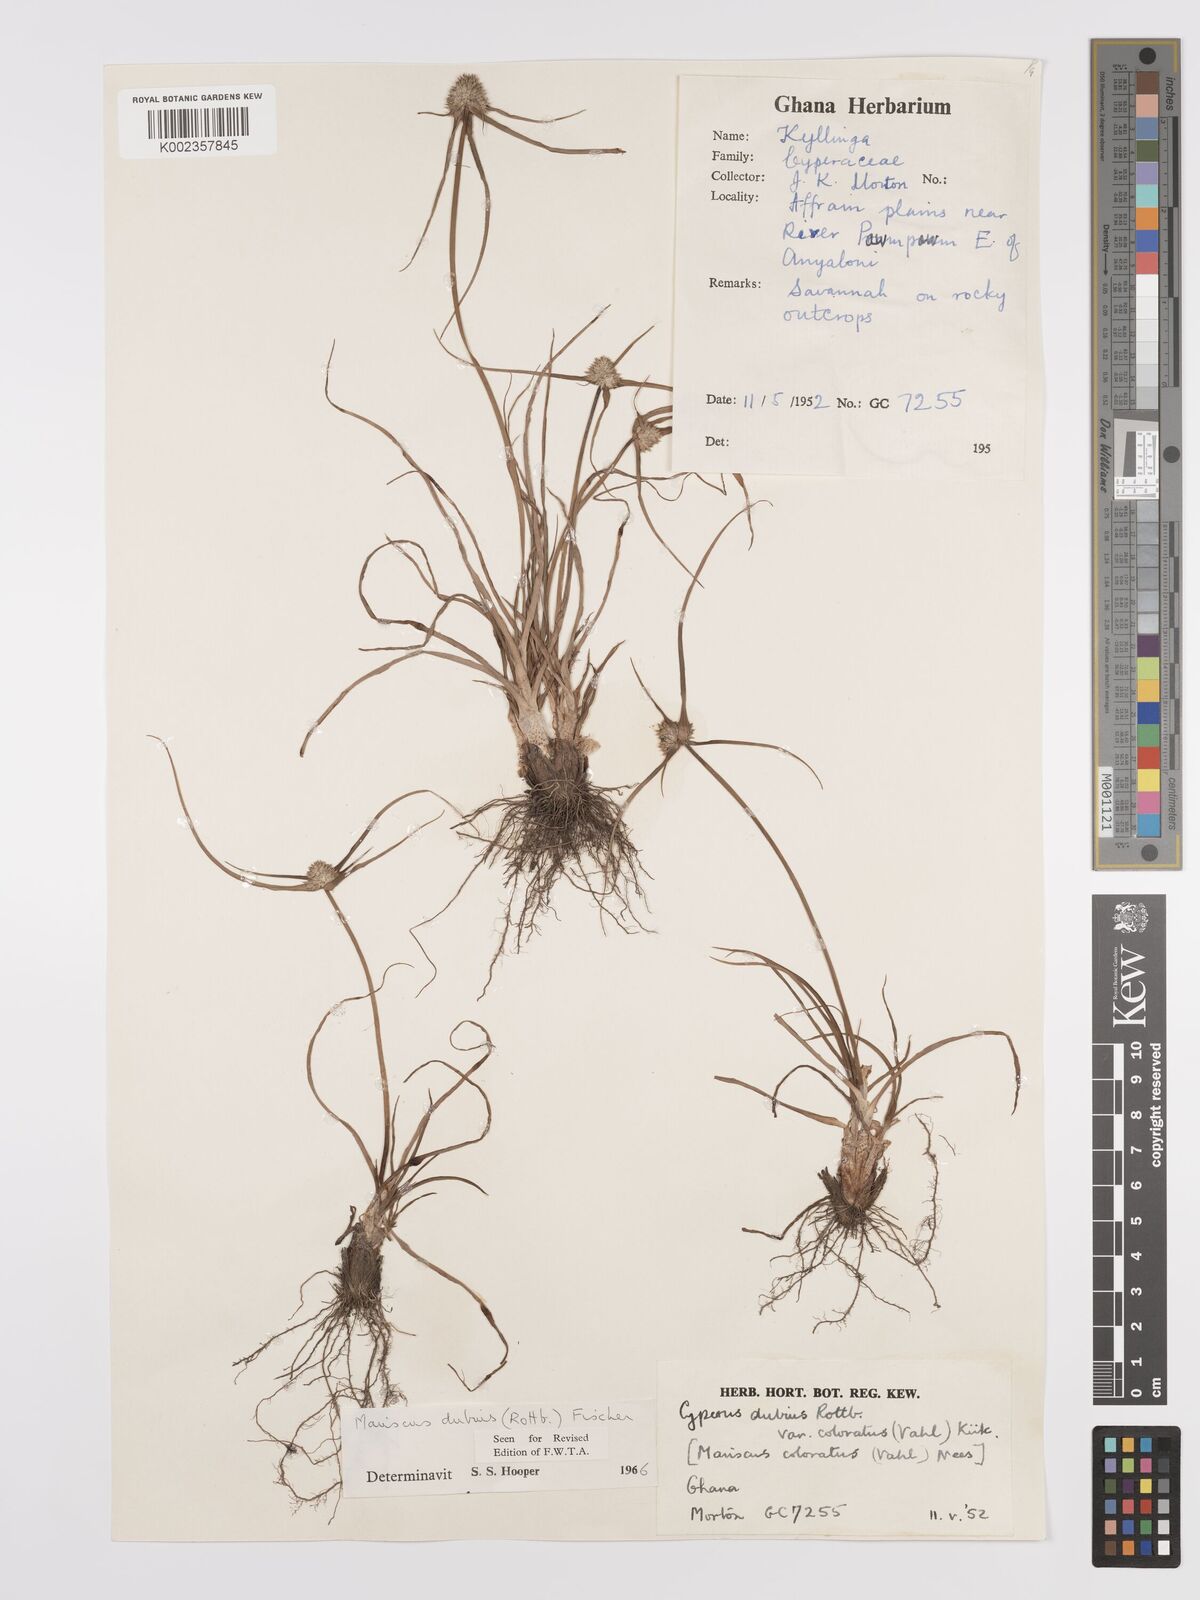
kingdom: Plantae
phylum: Tracheophyta
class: Liliopsida
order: Poales
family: Cyperaceae
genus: Cyperus
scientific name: Cyperus dubius
